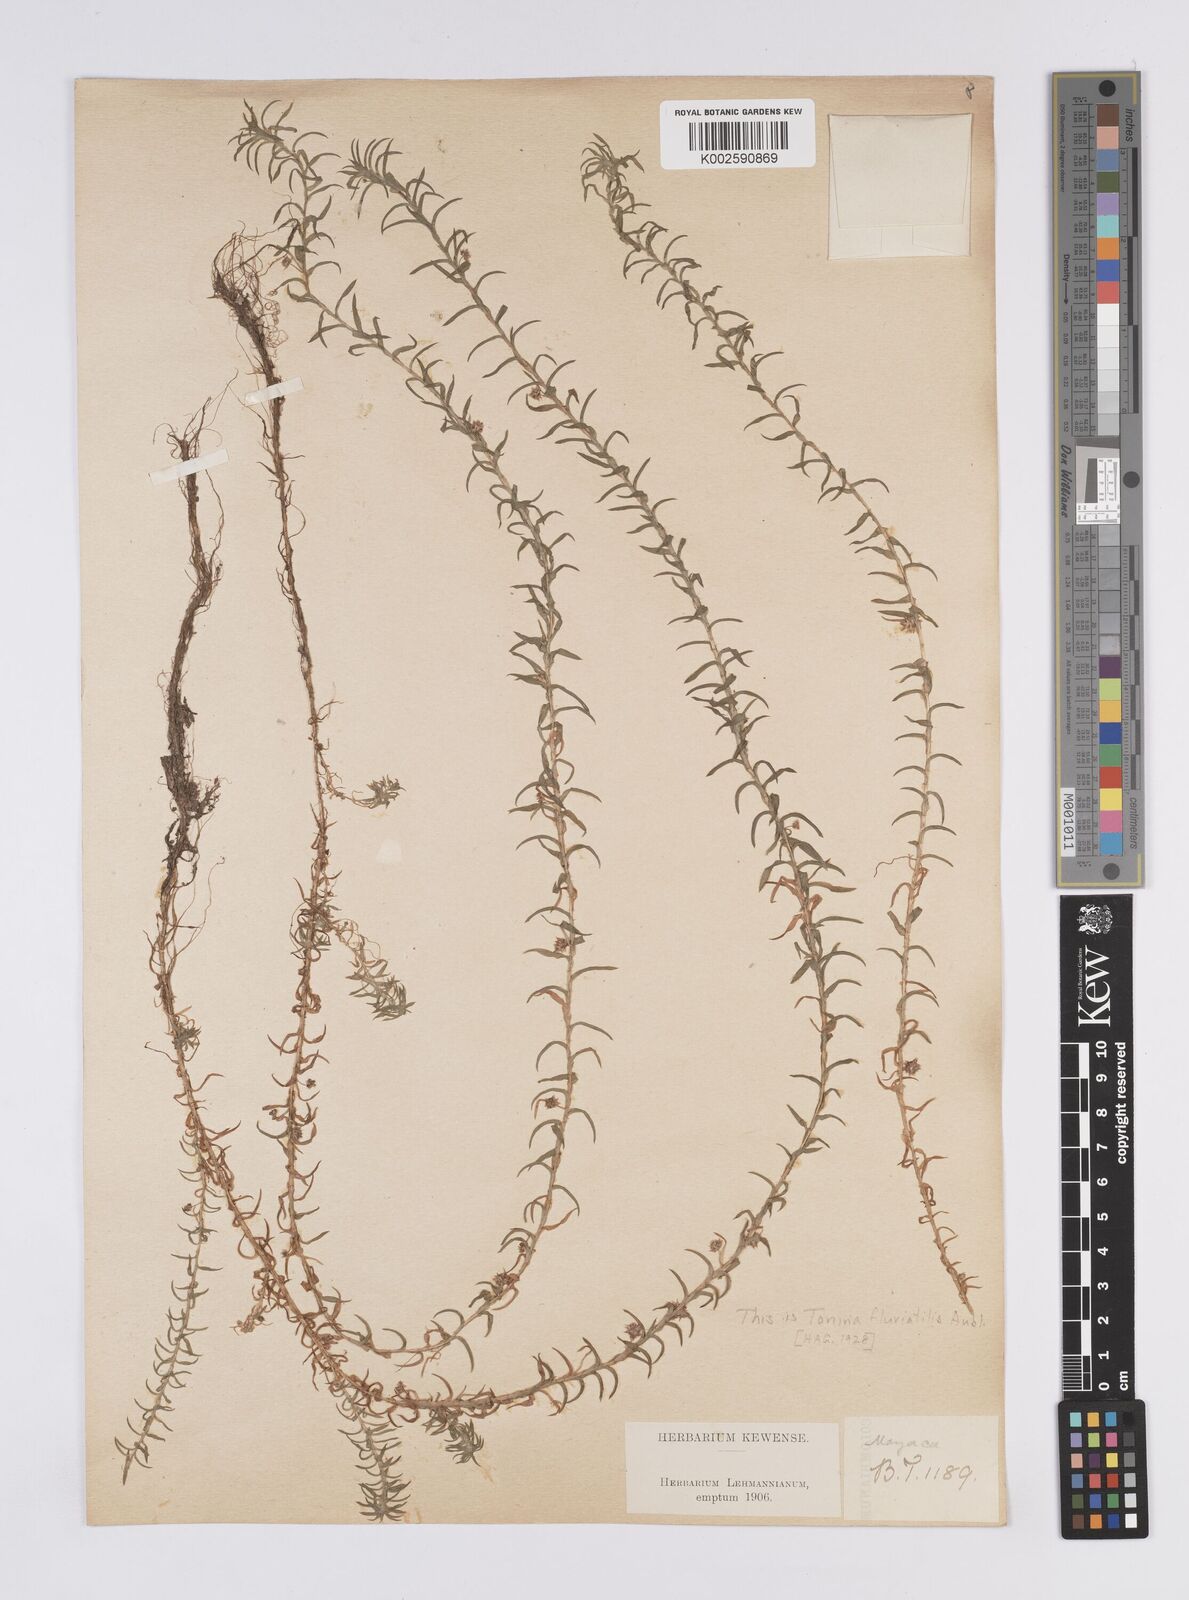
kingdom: Plantae
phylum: Tracheophyta
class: Liliopsida
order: Poales
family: Eriocaulaceae
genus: Paepalanthus
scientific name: Paepalanthus fluviatilis
